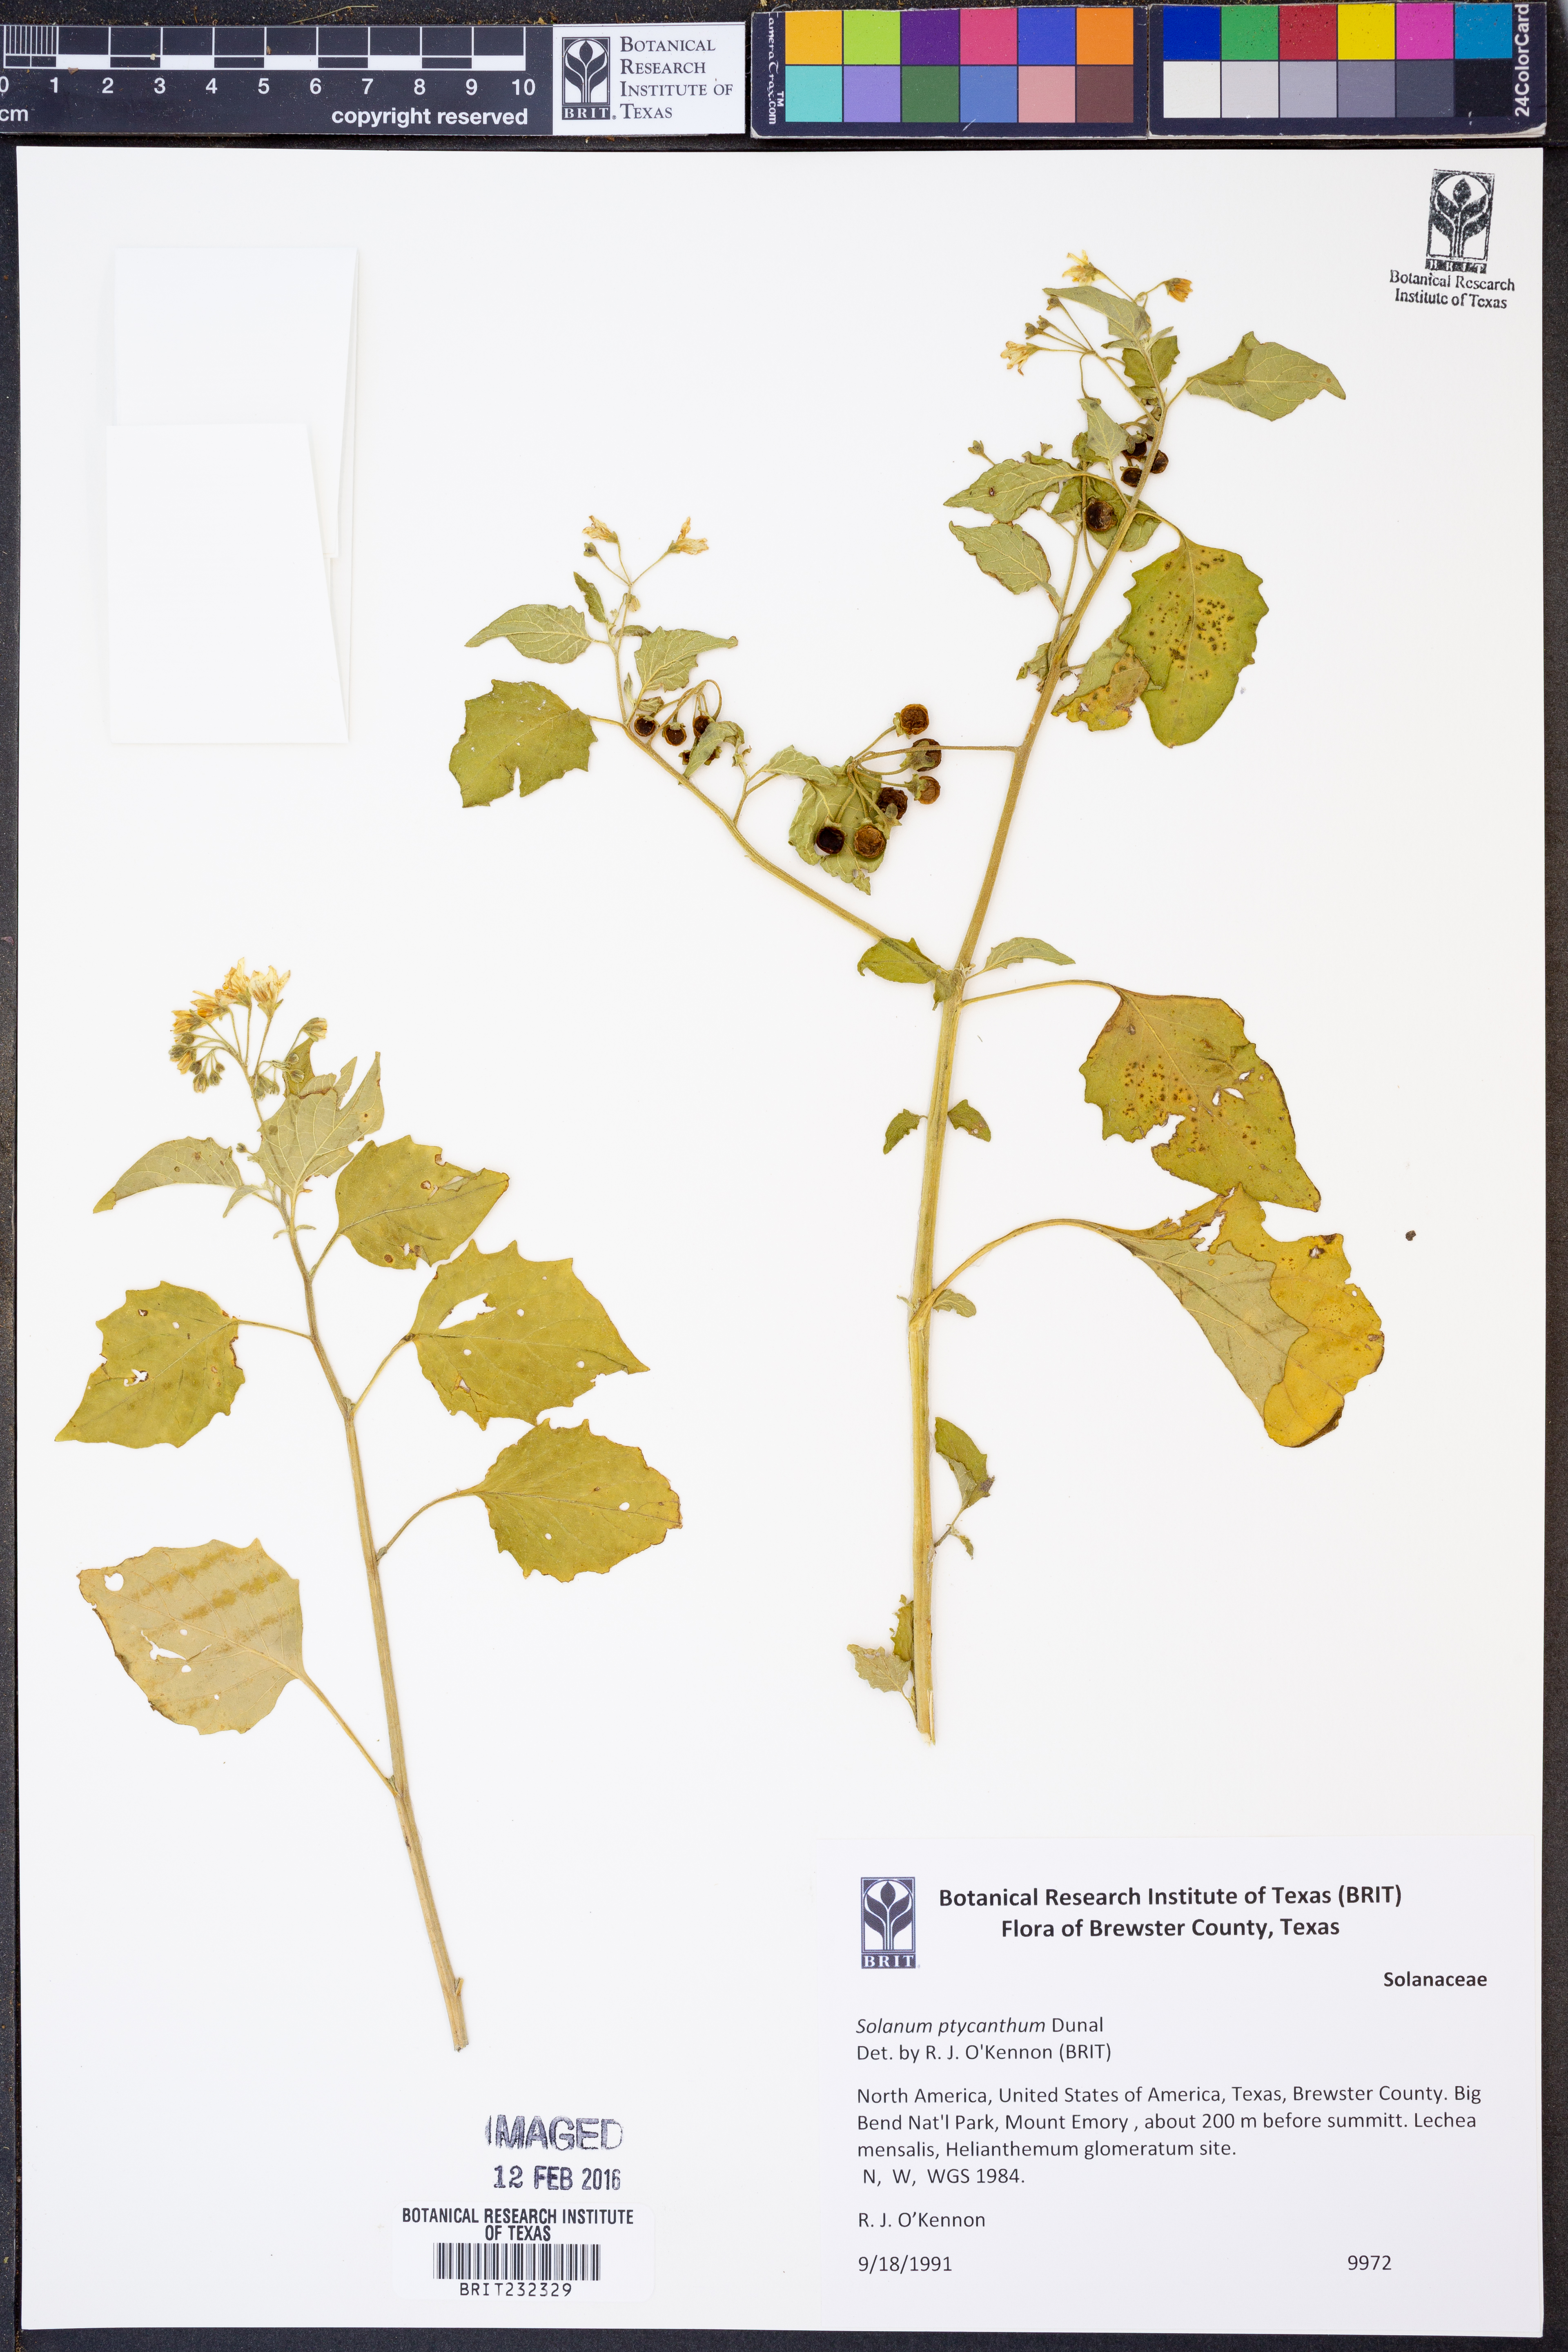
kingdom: Plantae
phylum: Tracheophyta
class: Magnoliopsida
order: Solanales
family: Solanaceae
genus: Solanum
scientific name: Solanum americanum
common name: American black nightshade
